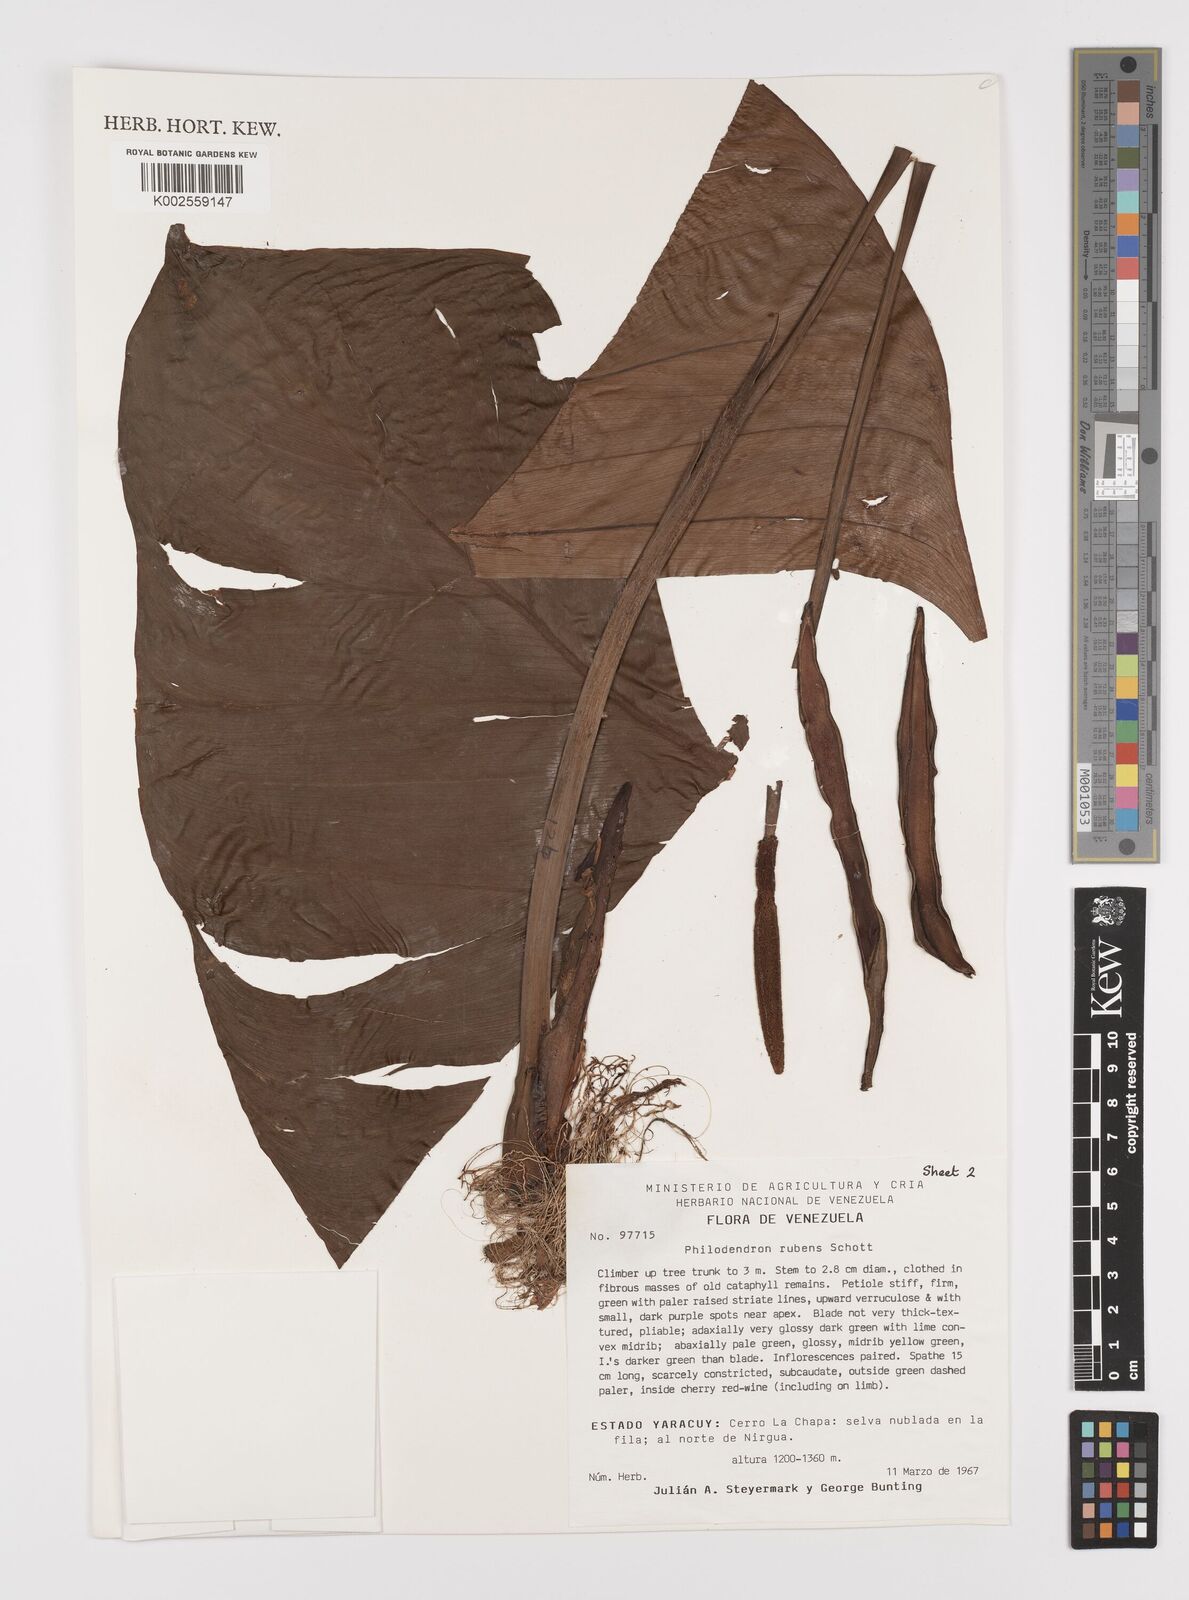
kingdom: Plantae
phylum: Tracheophyta
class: Liliopsida
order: Alismatales
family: Araceae
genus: Philodendron
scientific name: Philodendron ornatum
